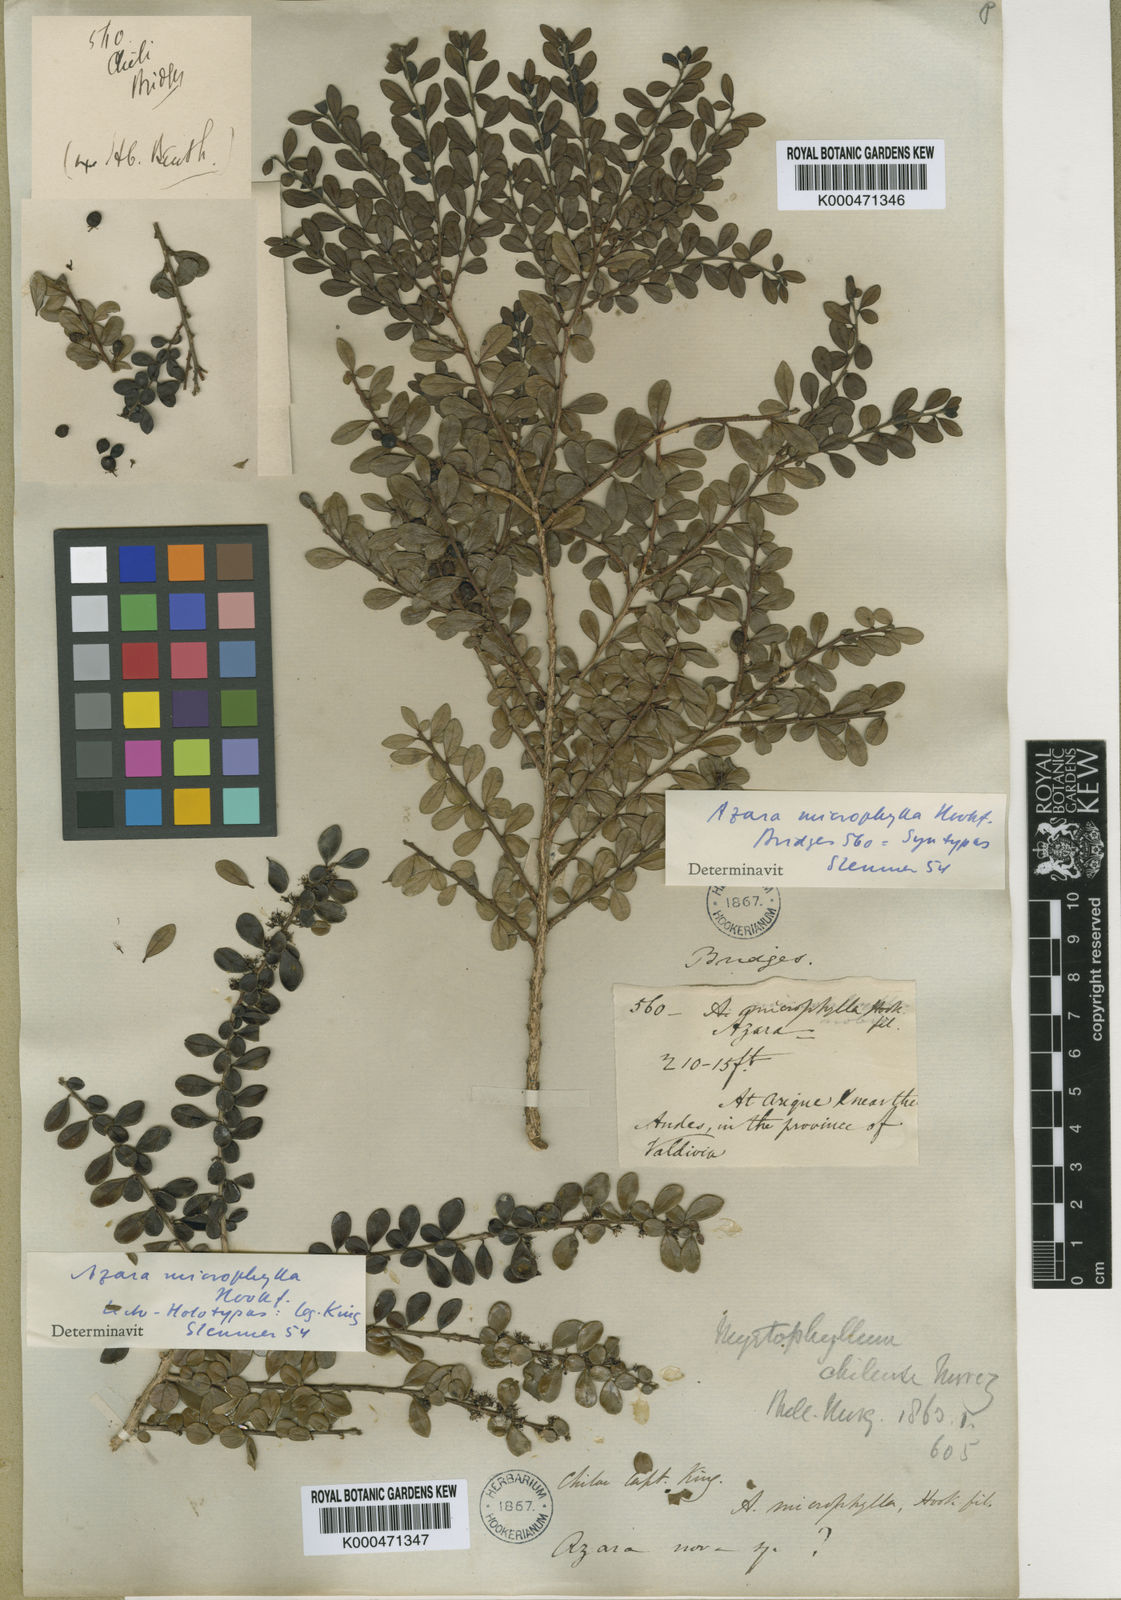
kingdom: Plantae
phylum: Tracheophyta
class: Magnoliopsida
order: Malpighiales
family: Salicaceae
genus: Azara
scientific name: Azara microphylla
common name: Box-leaf azara
